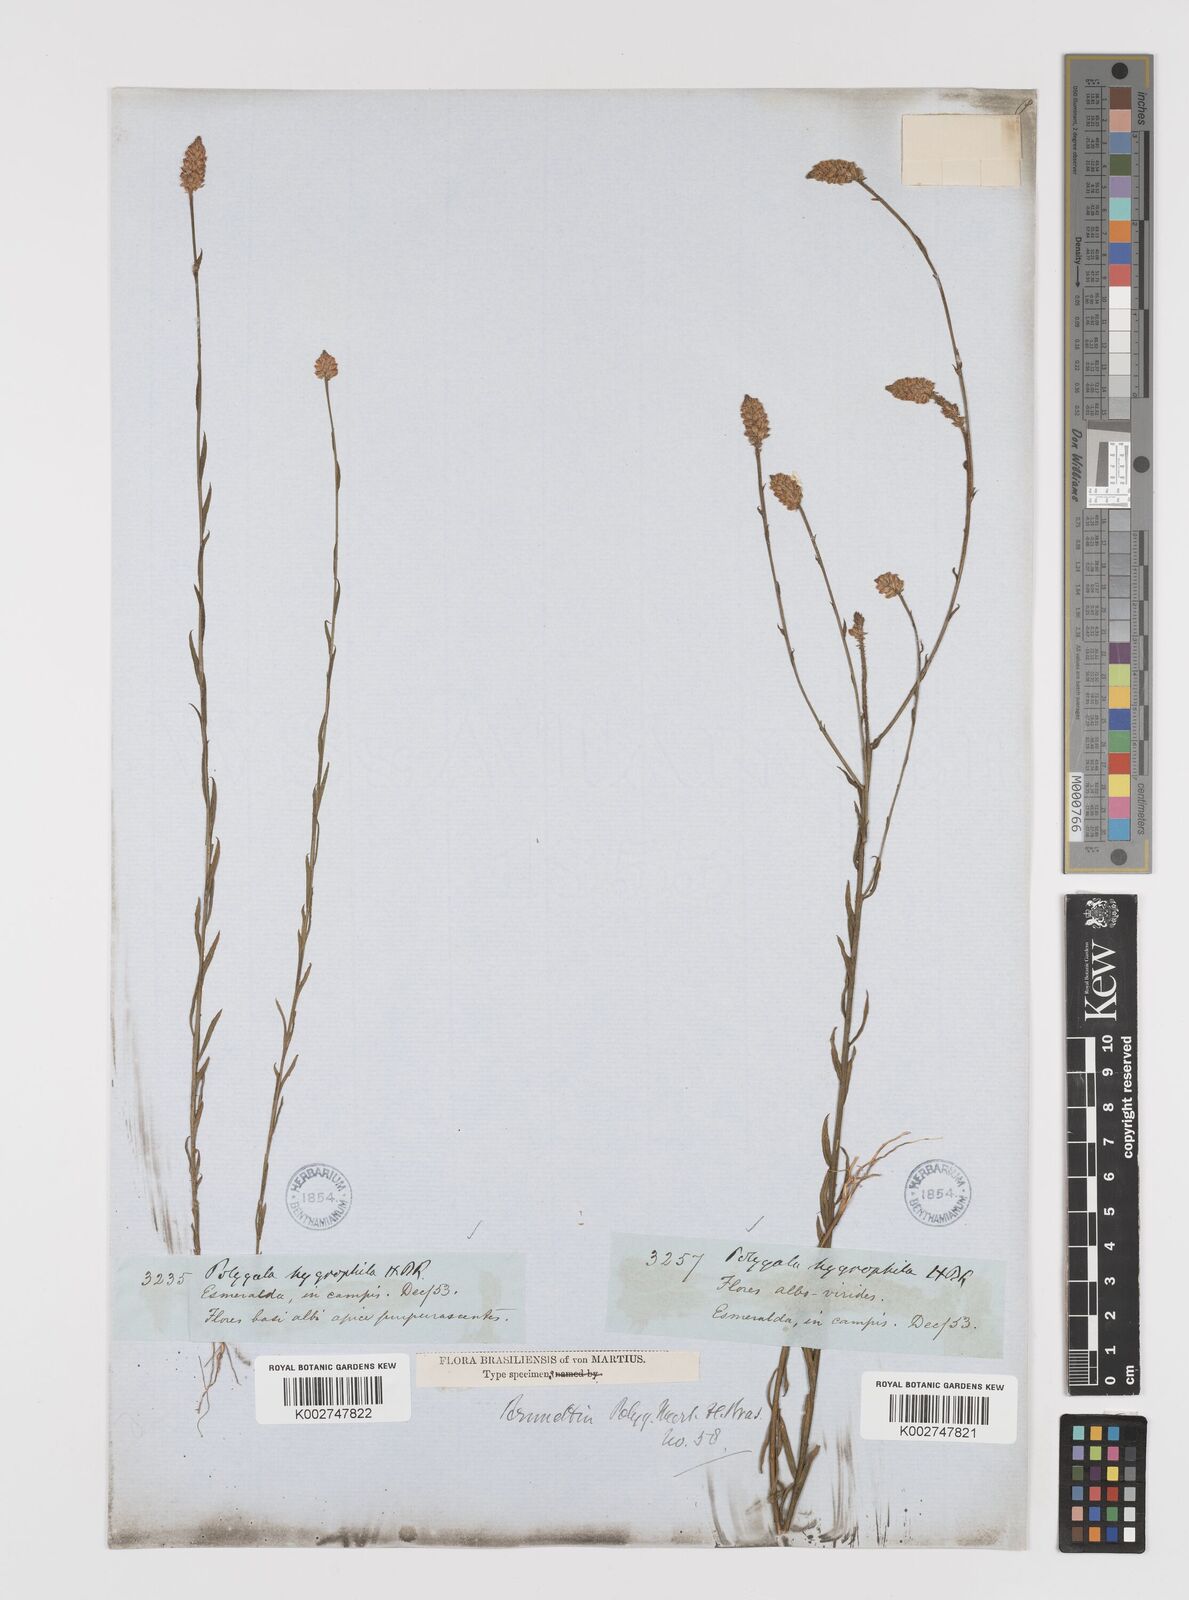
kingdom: Plantae
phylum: Tracheophyta
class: Magnoliopsida
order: Fabales
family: Polygalaceae
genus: Polygala
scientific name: Polygala hygrophila
